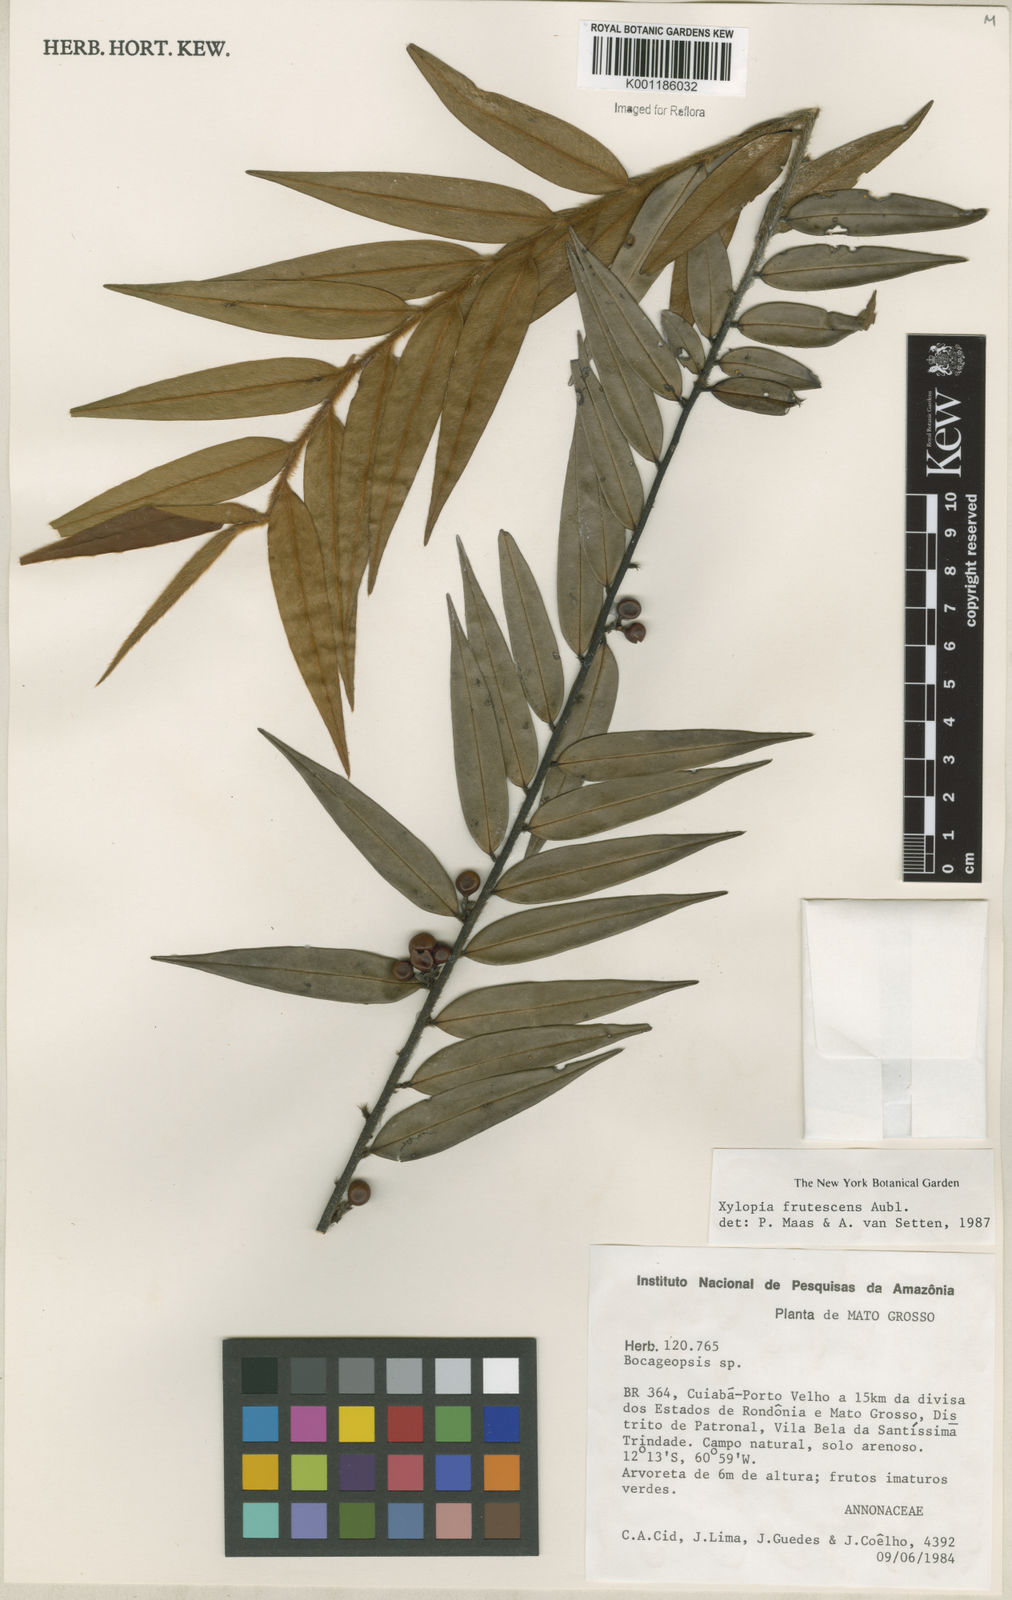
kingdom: Plantae
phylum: Tracheophyta
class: Magnoliopsida
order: Magnoliales
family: Annonaceae
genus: Xylopia
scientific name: Xylopia frutescens
